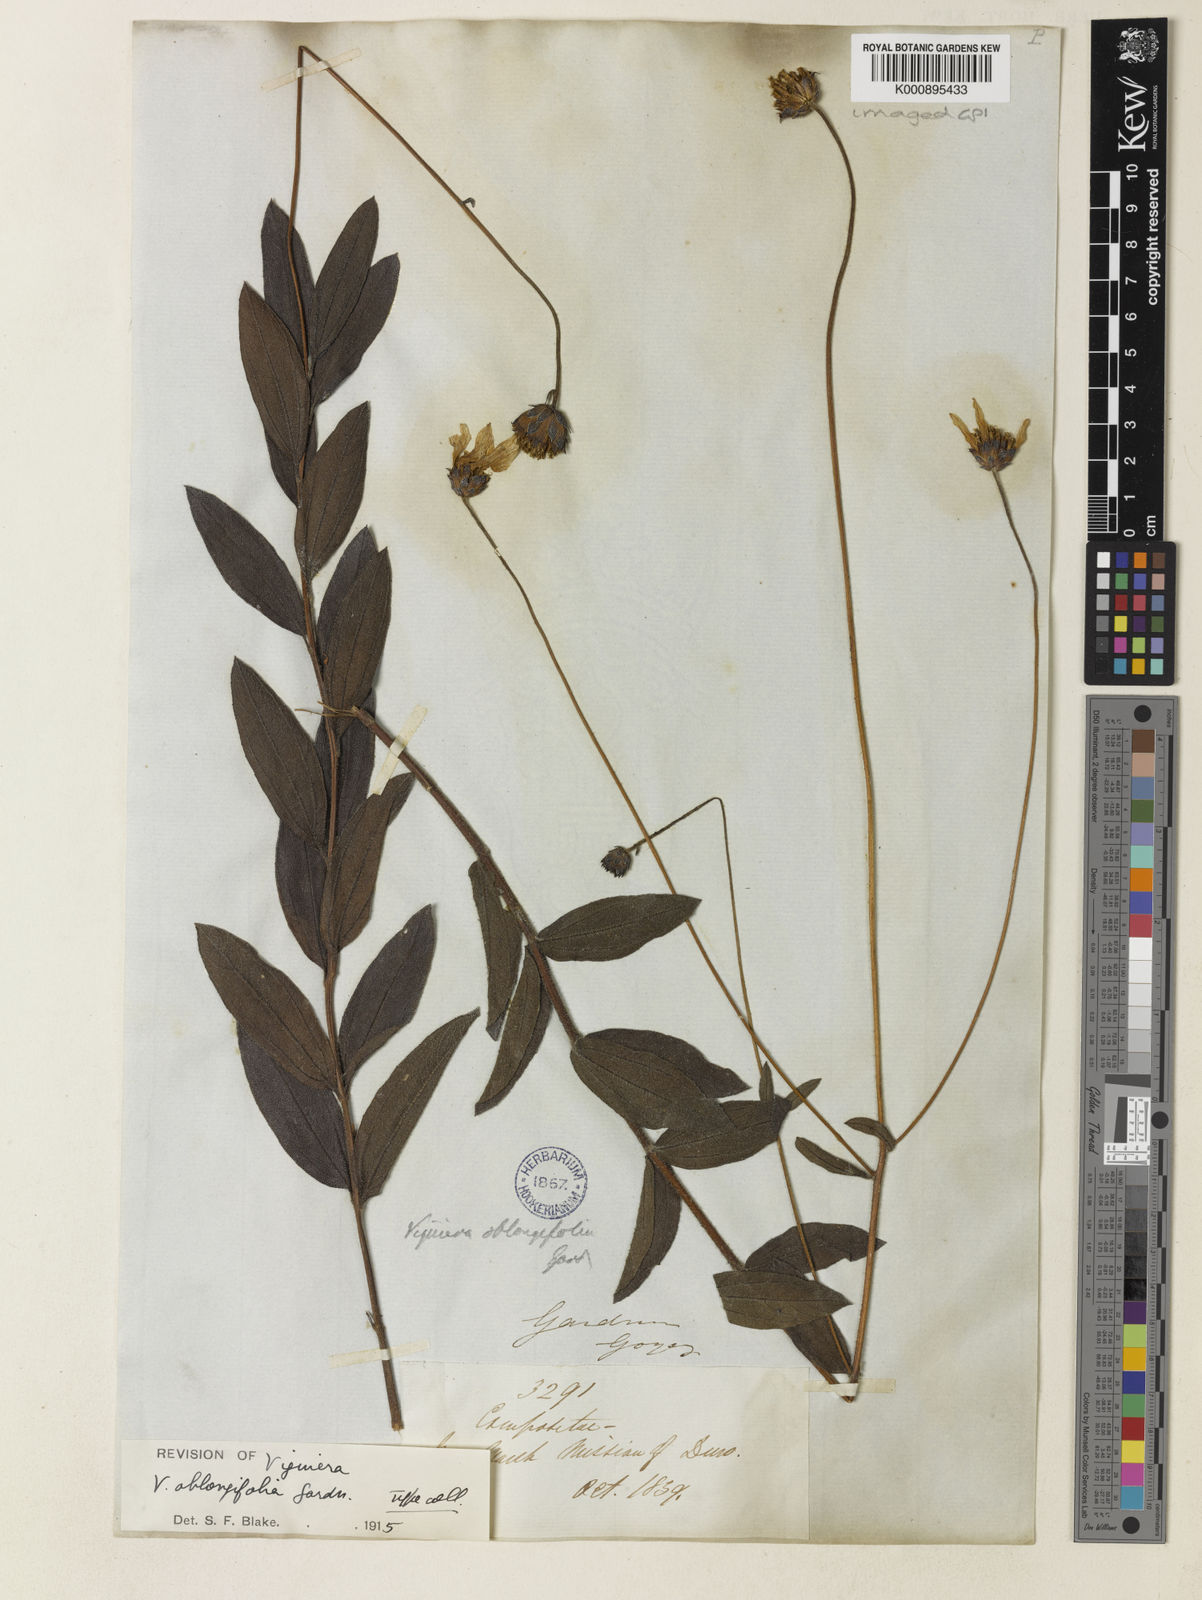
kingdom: Plantae
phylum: Tracheophyta
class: Magnoliopsida
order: Asterales
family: Asteraceae
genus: Aldama
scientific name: Aldama oblongifolia
